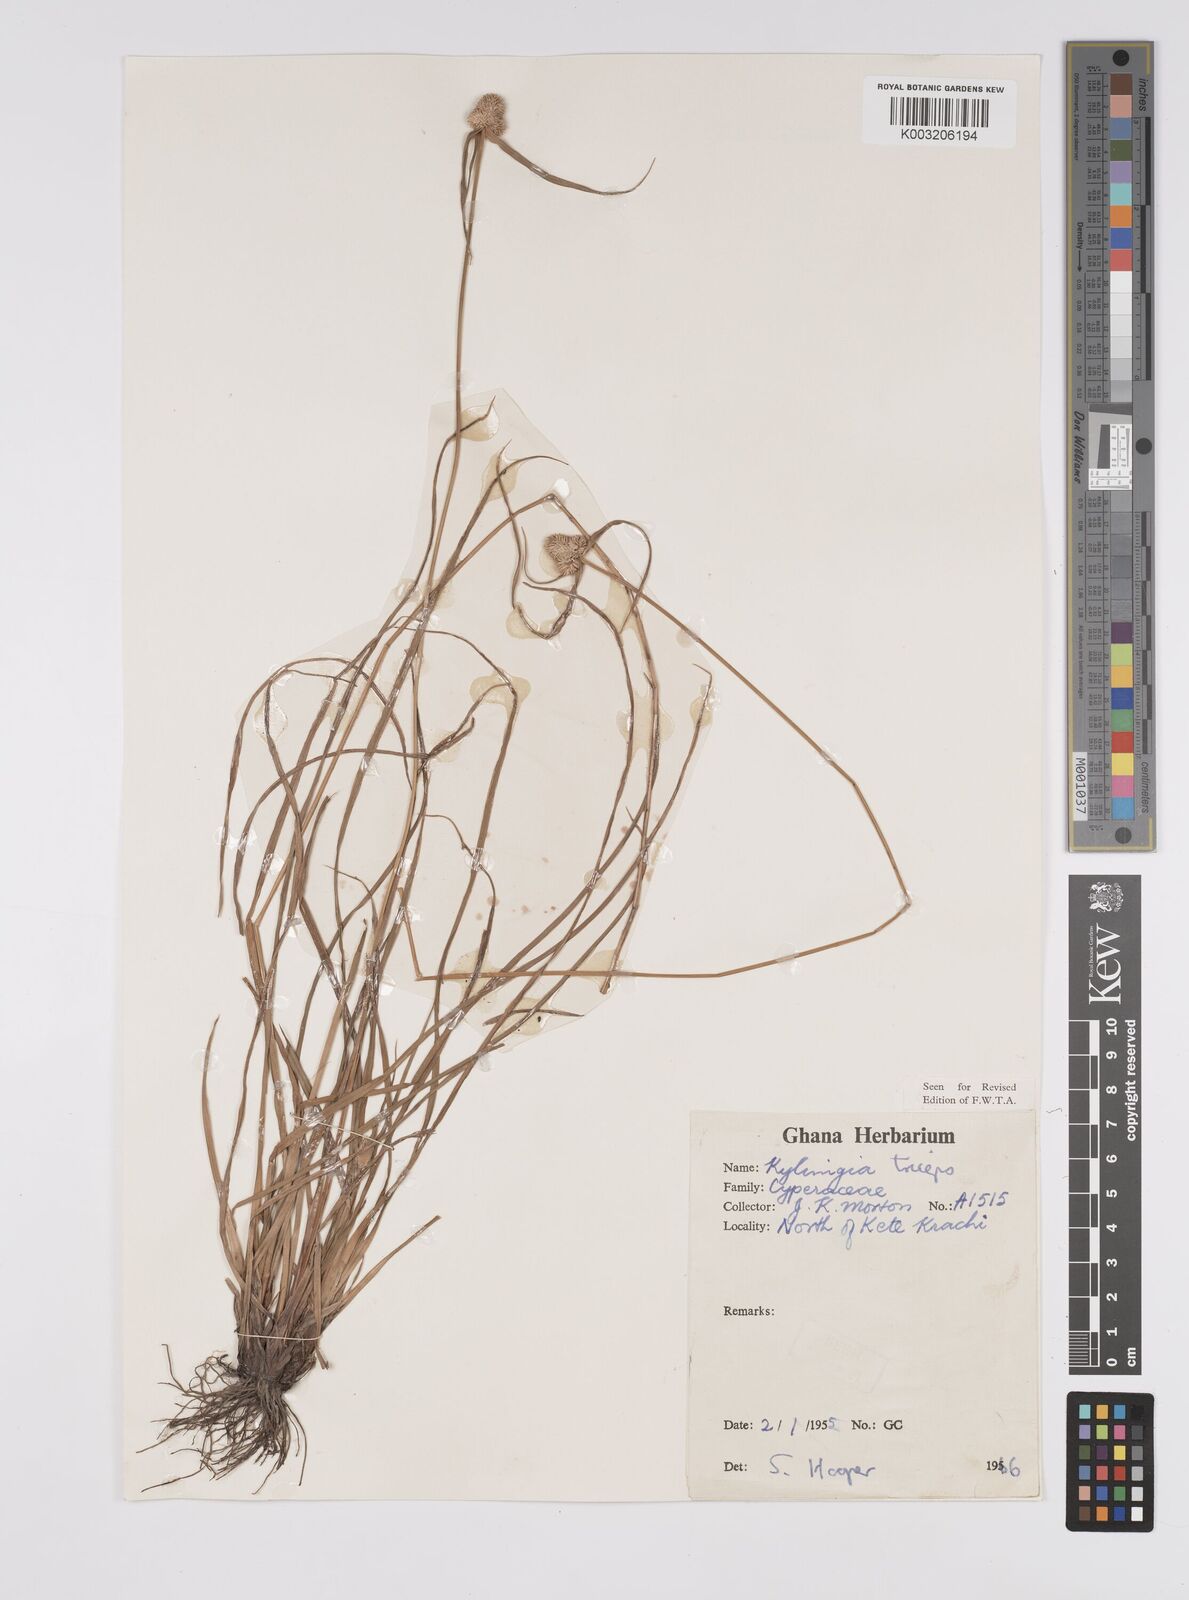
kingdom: Plantae
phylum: Tracheophyta
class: Liliopsida
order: Poales
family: Cyperaceae
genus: Cyperus
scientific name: Cyperus
